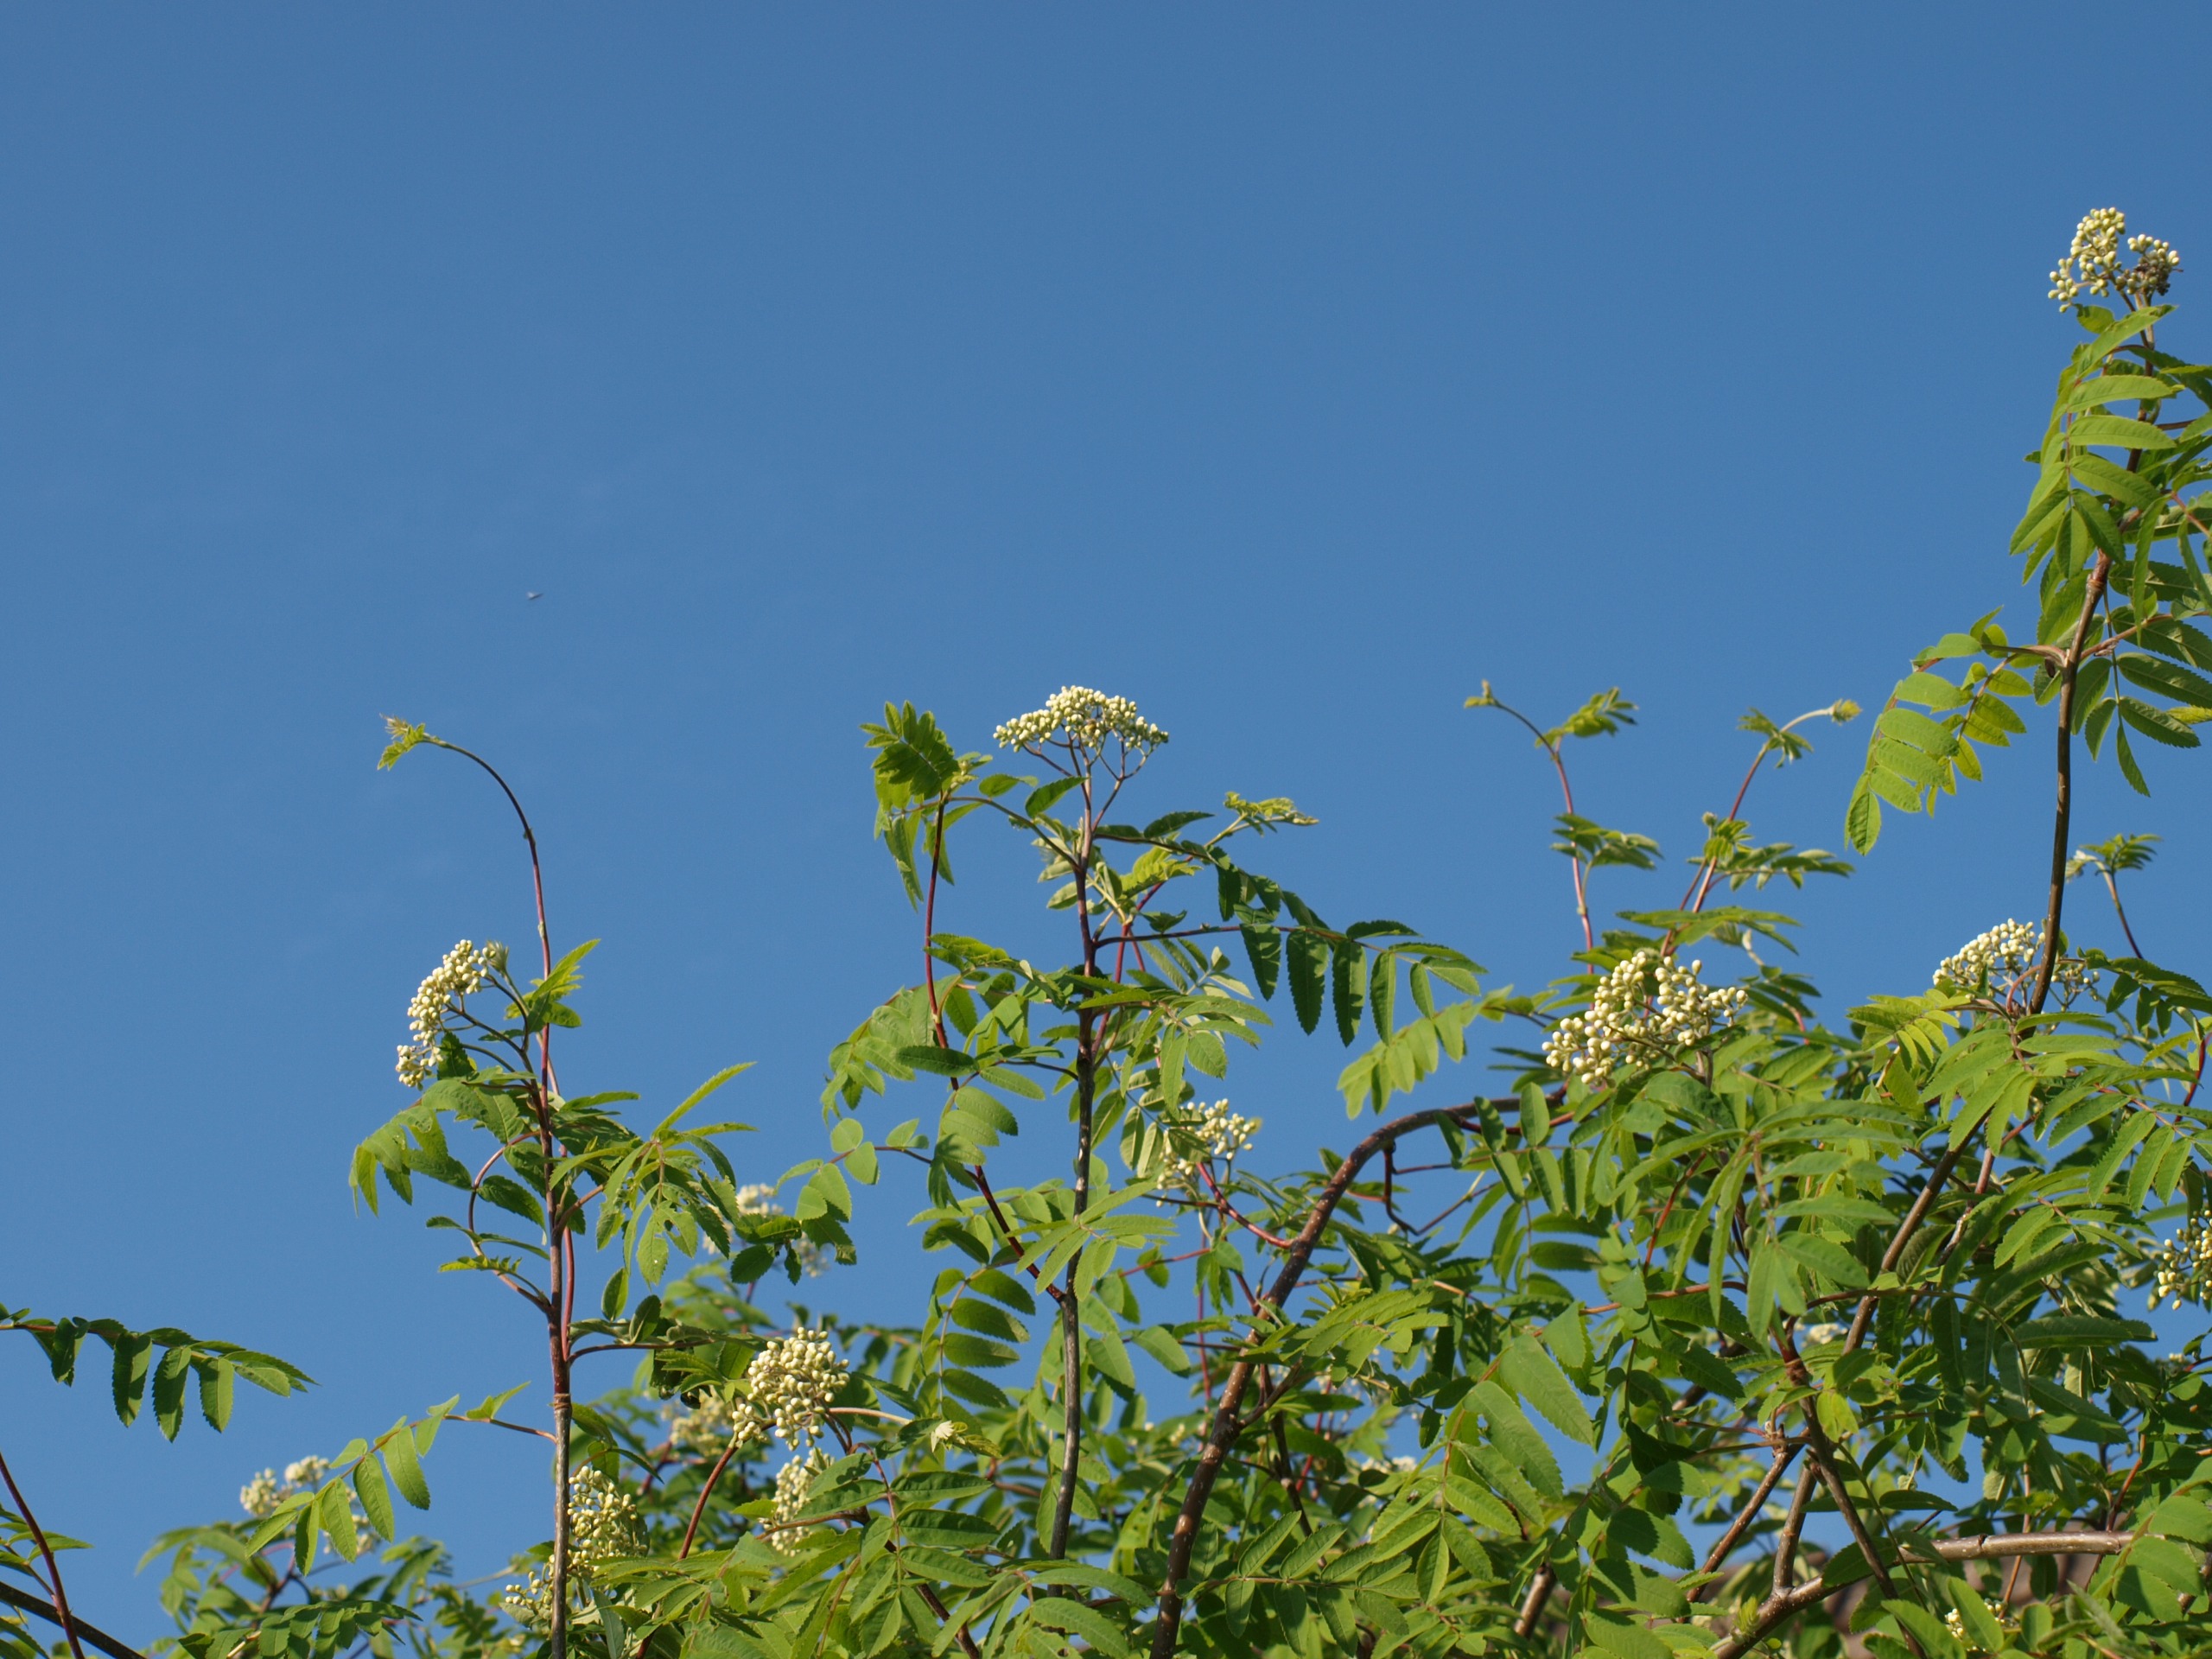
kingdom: Animalia
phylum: Chordata
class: Aves
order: Accipitriformes
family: Accipitridae
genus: Circus
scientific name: Circus cyaneus
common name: Blå kærhøg
